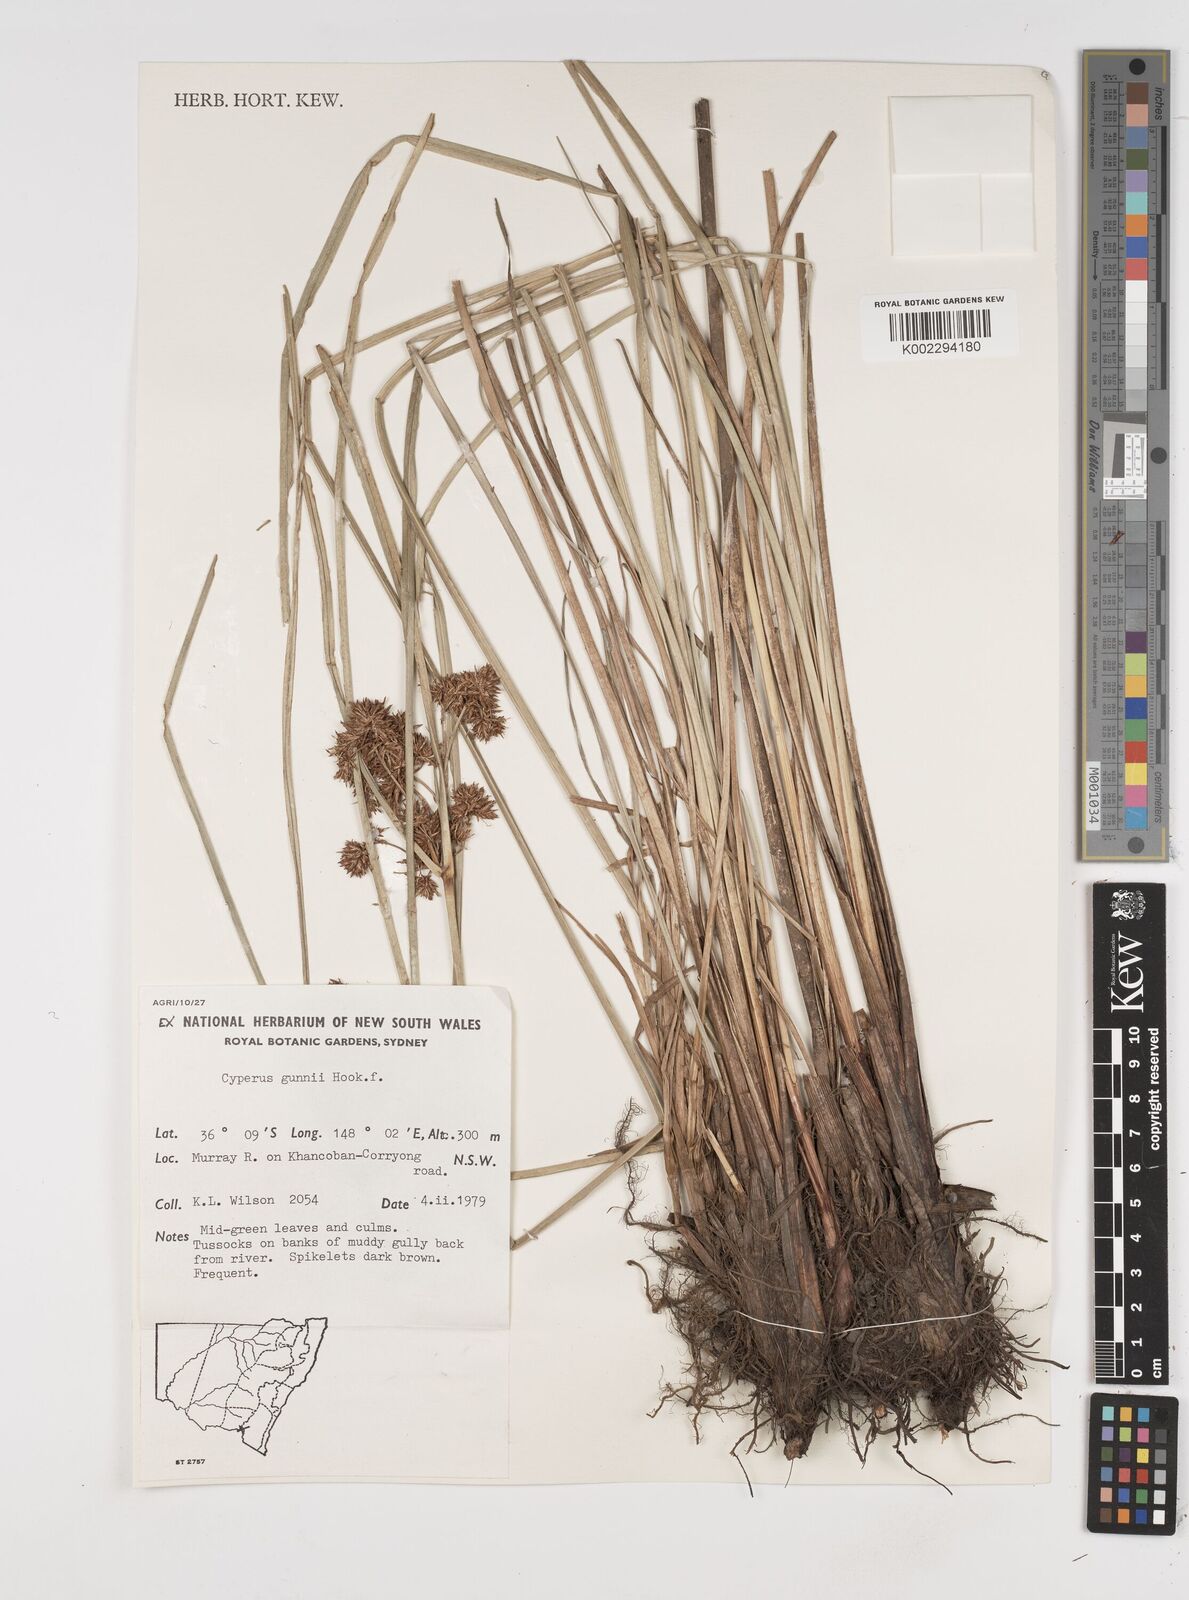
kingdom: Plantae
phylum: Tracheophyta
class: Liliopsida
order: Poales
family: Cyperaceae
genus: Cyperus
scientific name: Cyperus gunnii
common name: Flecked flat-sedge
